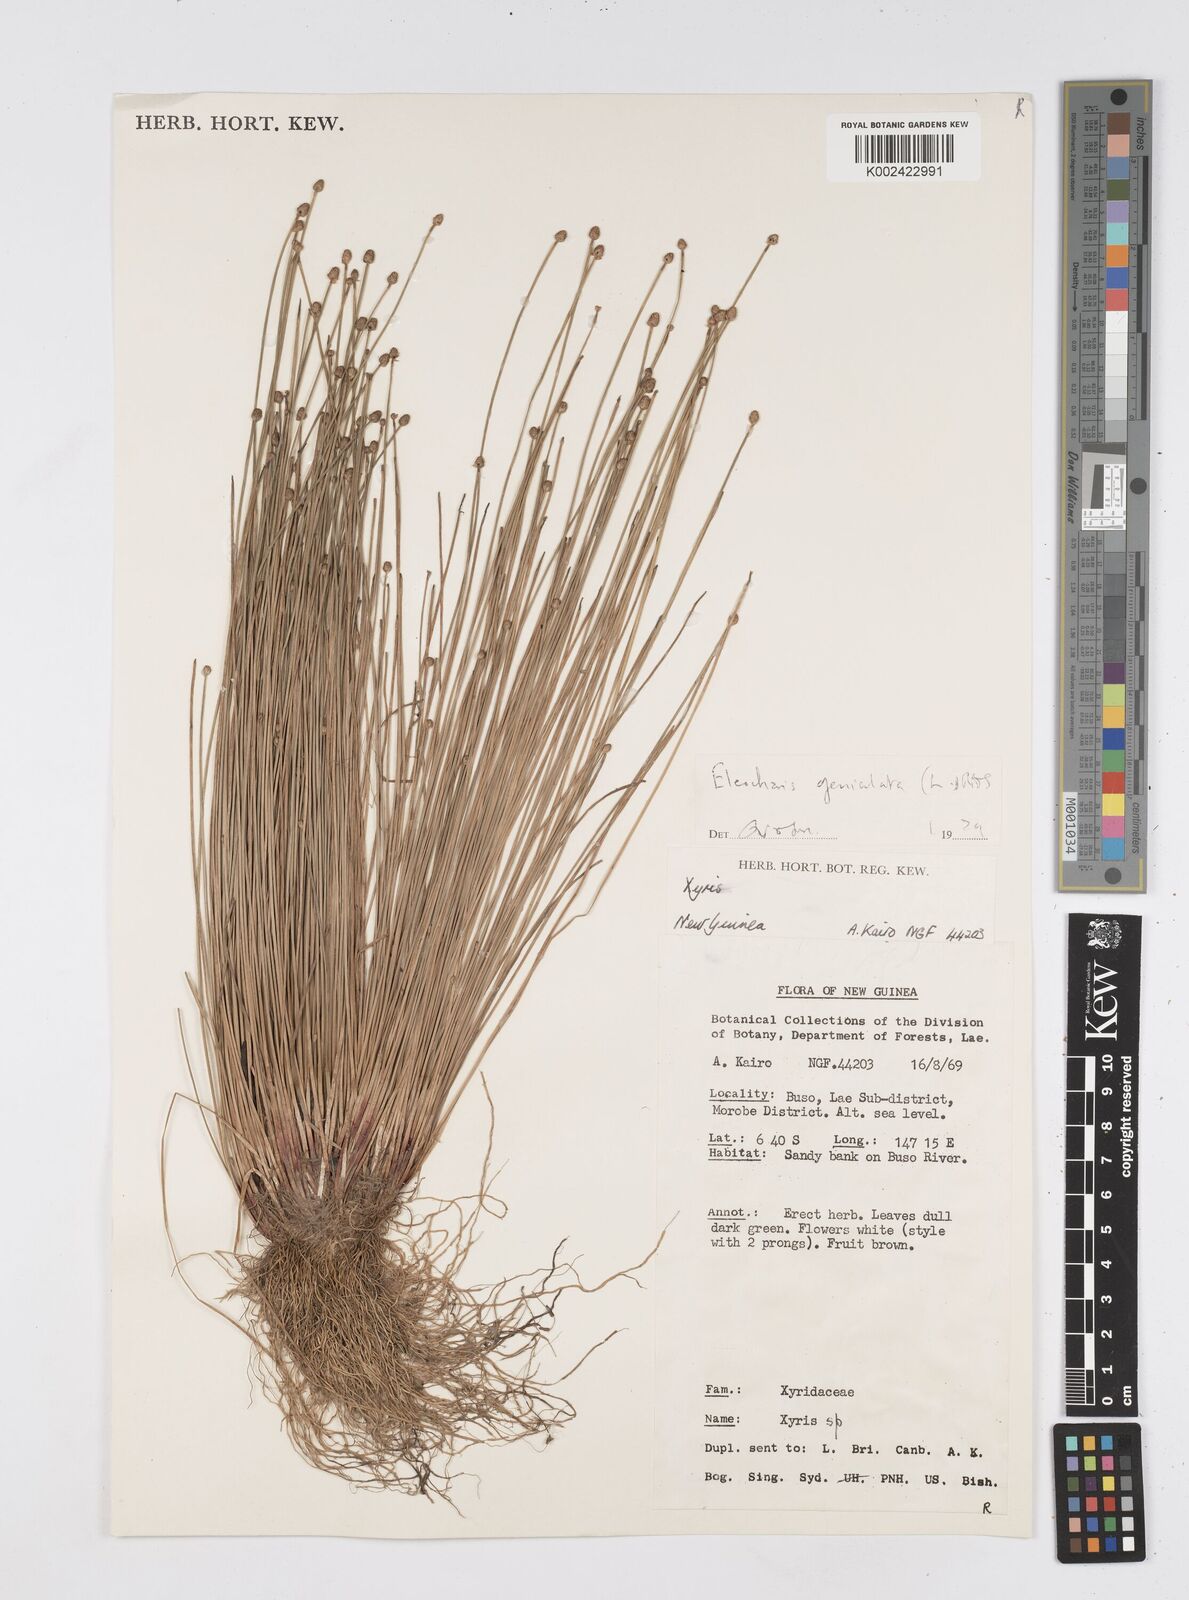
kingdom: Plantae
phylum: Tracheophyta
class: Liliopsida
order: Poales
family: Cyperaceae
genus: Eleocharis
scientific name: Eleocharis geniculata
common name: Canada spikesedge
